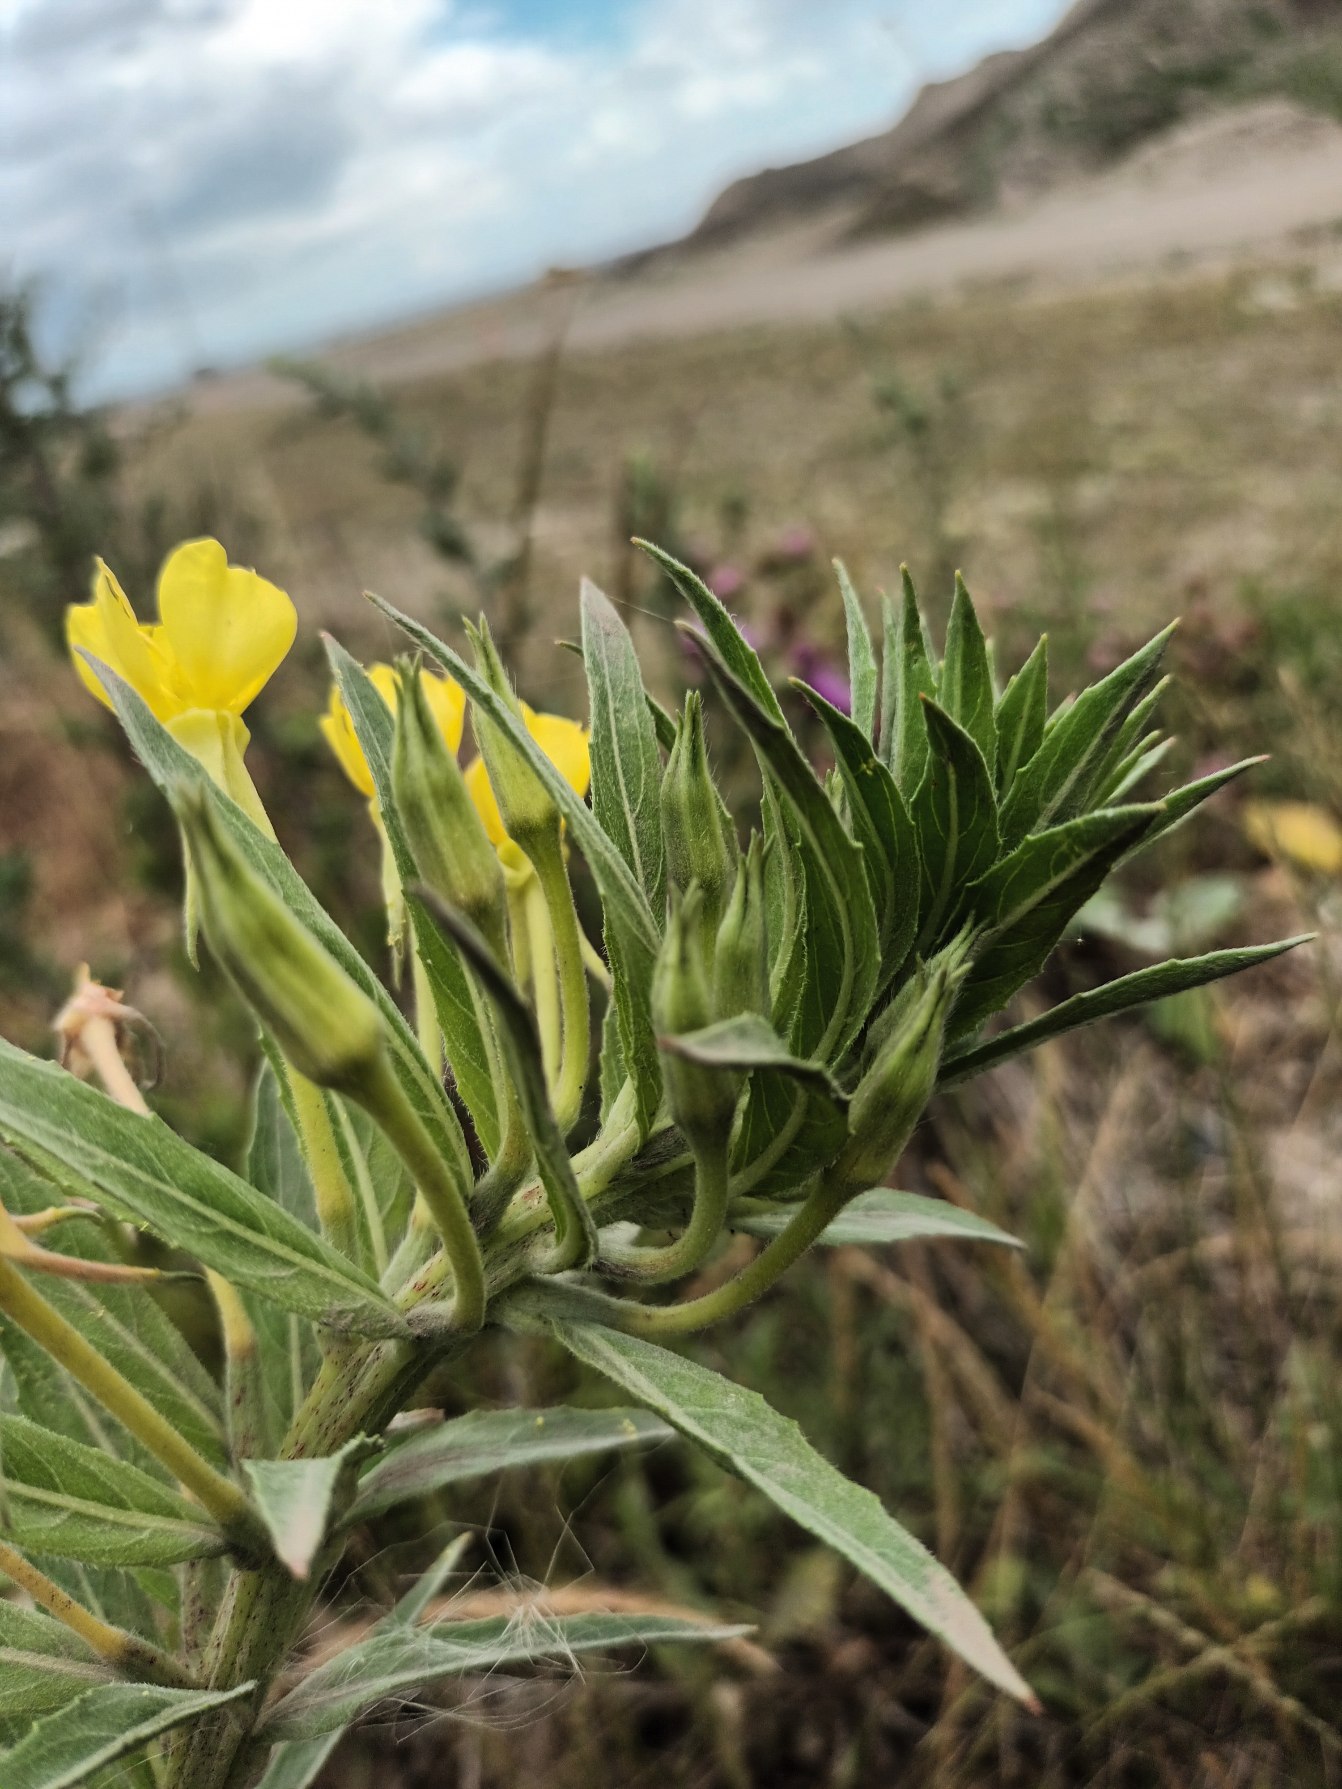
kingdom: Plantae
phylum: Tracheophyta
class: Magnoliopsida
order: Myrtales
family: Onagraceae
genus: Oenothera
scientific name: Oenothera oakesiana
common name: Blågrøn natlys
